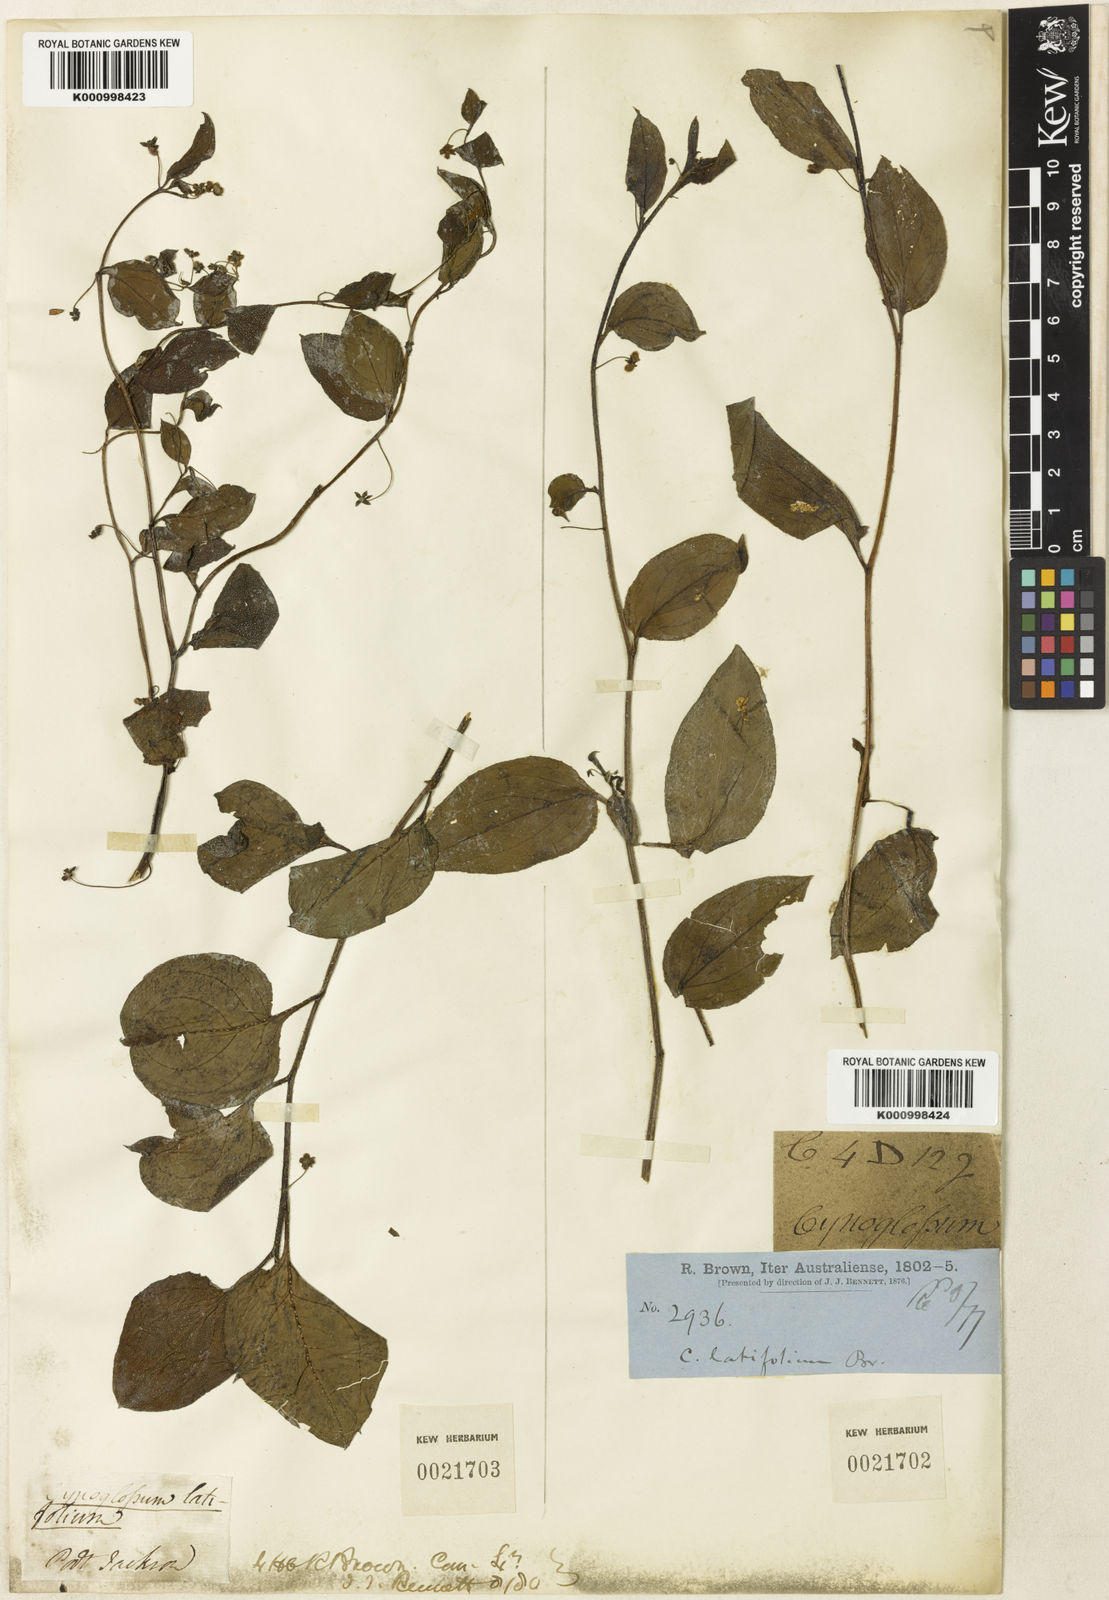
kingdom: Plantae
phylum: Tracheophyta
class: Magnoliopsida
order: Boraginales
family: Boraginaceae
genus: Hackelia
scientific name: Hackelia latifolia
